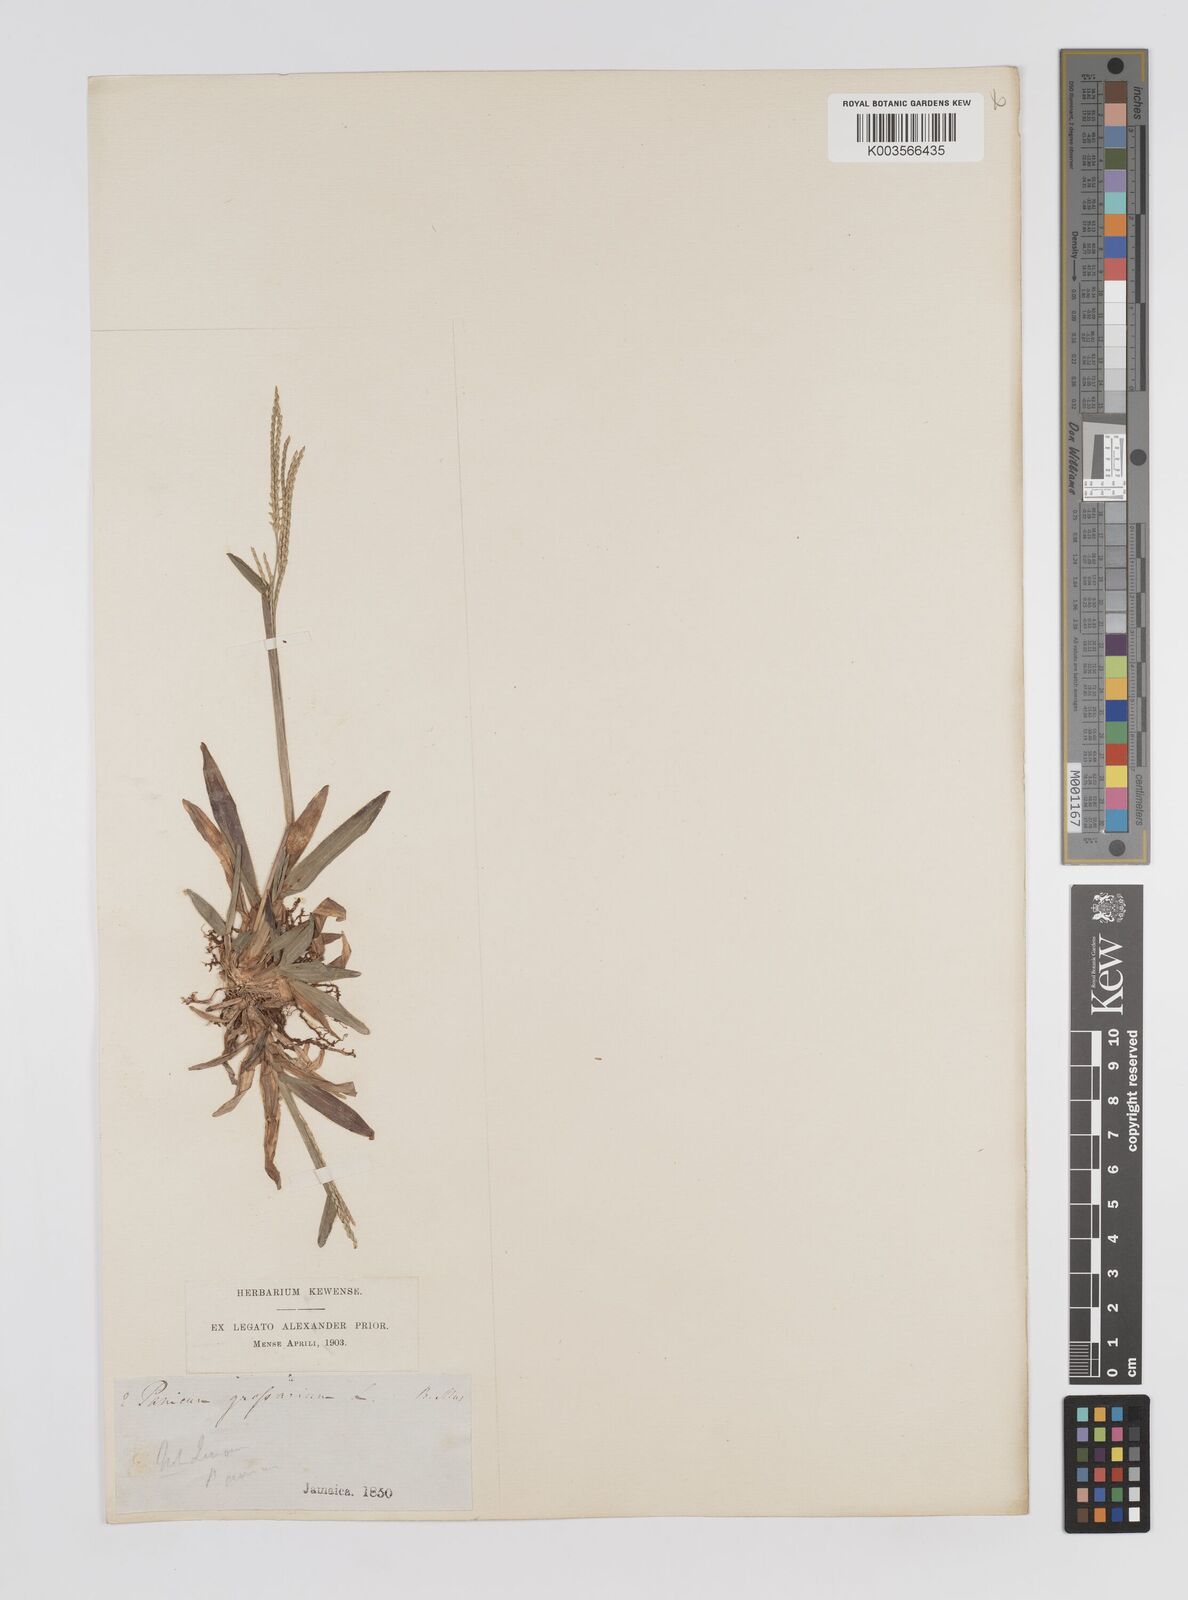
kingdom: Plantae
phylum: Tracheophyta
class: Liliopsida
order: Poales
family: Poaceae
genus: Axonopus
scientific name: Axonopus compressus
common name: American carpet grass
